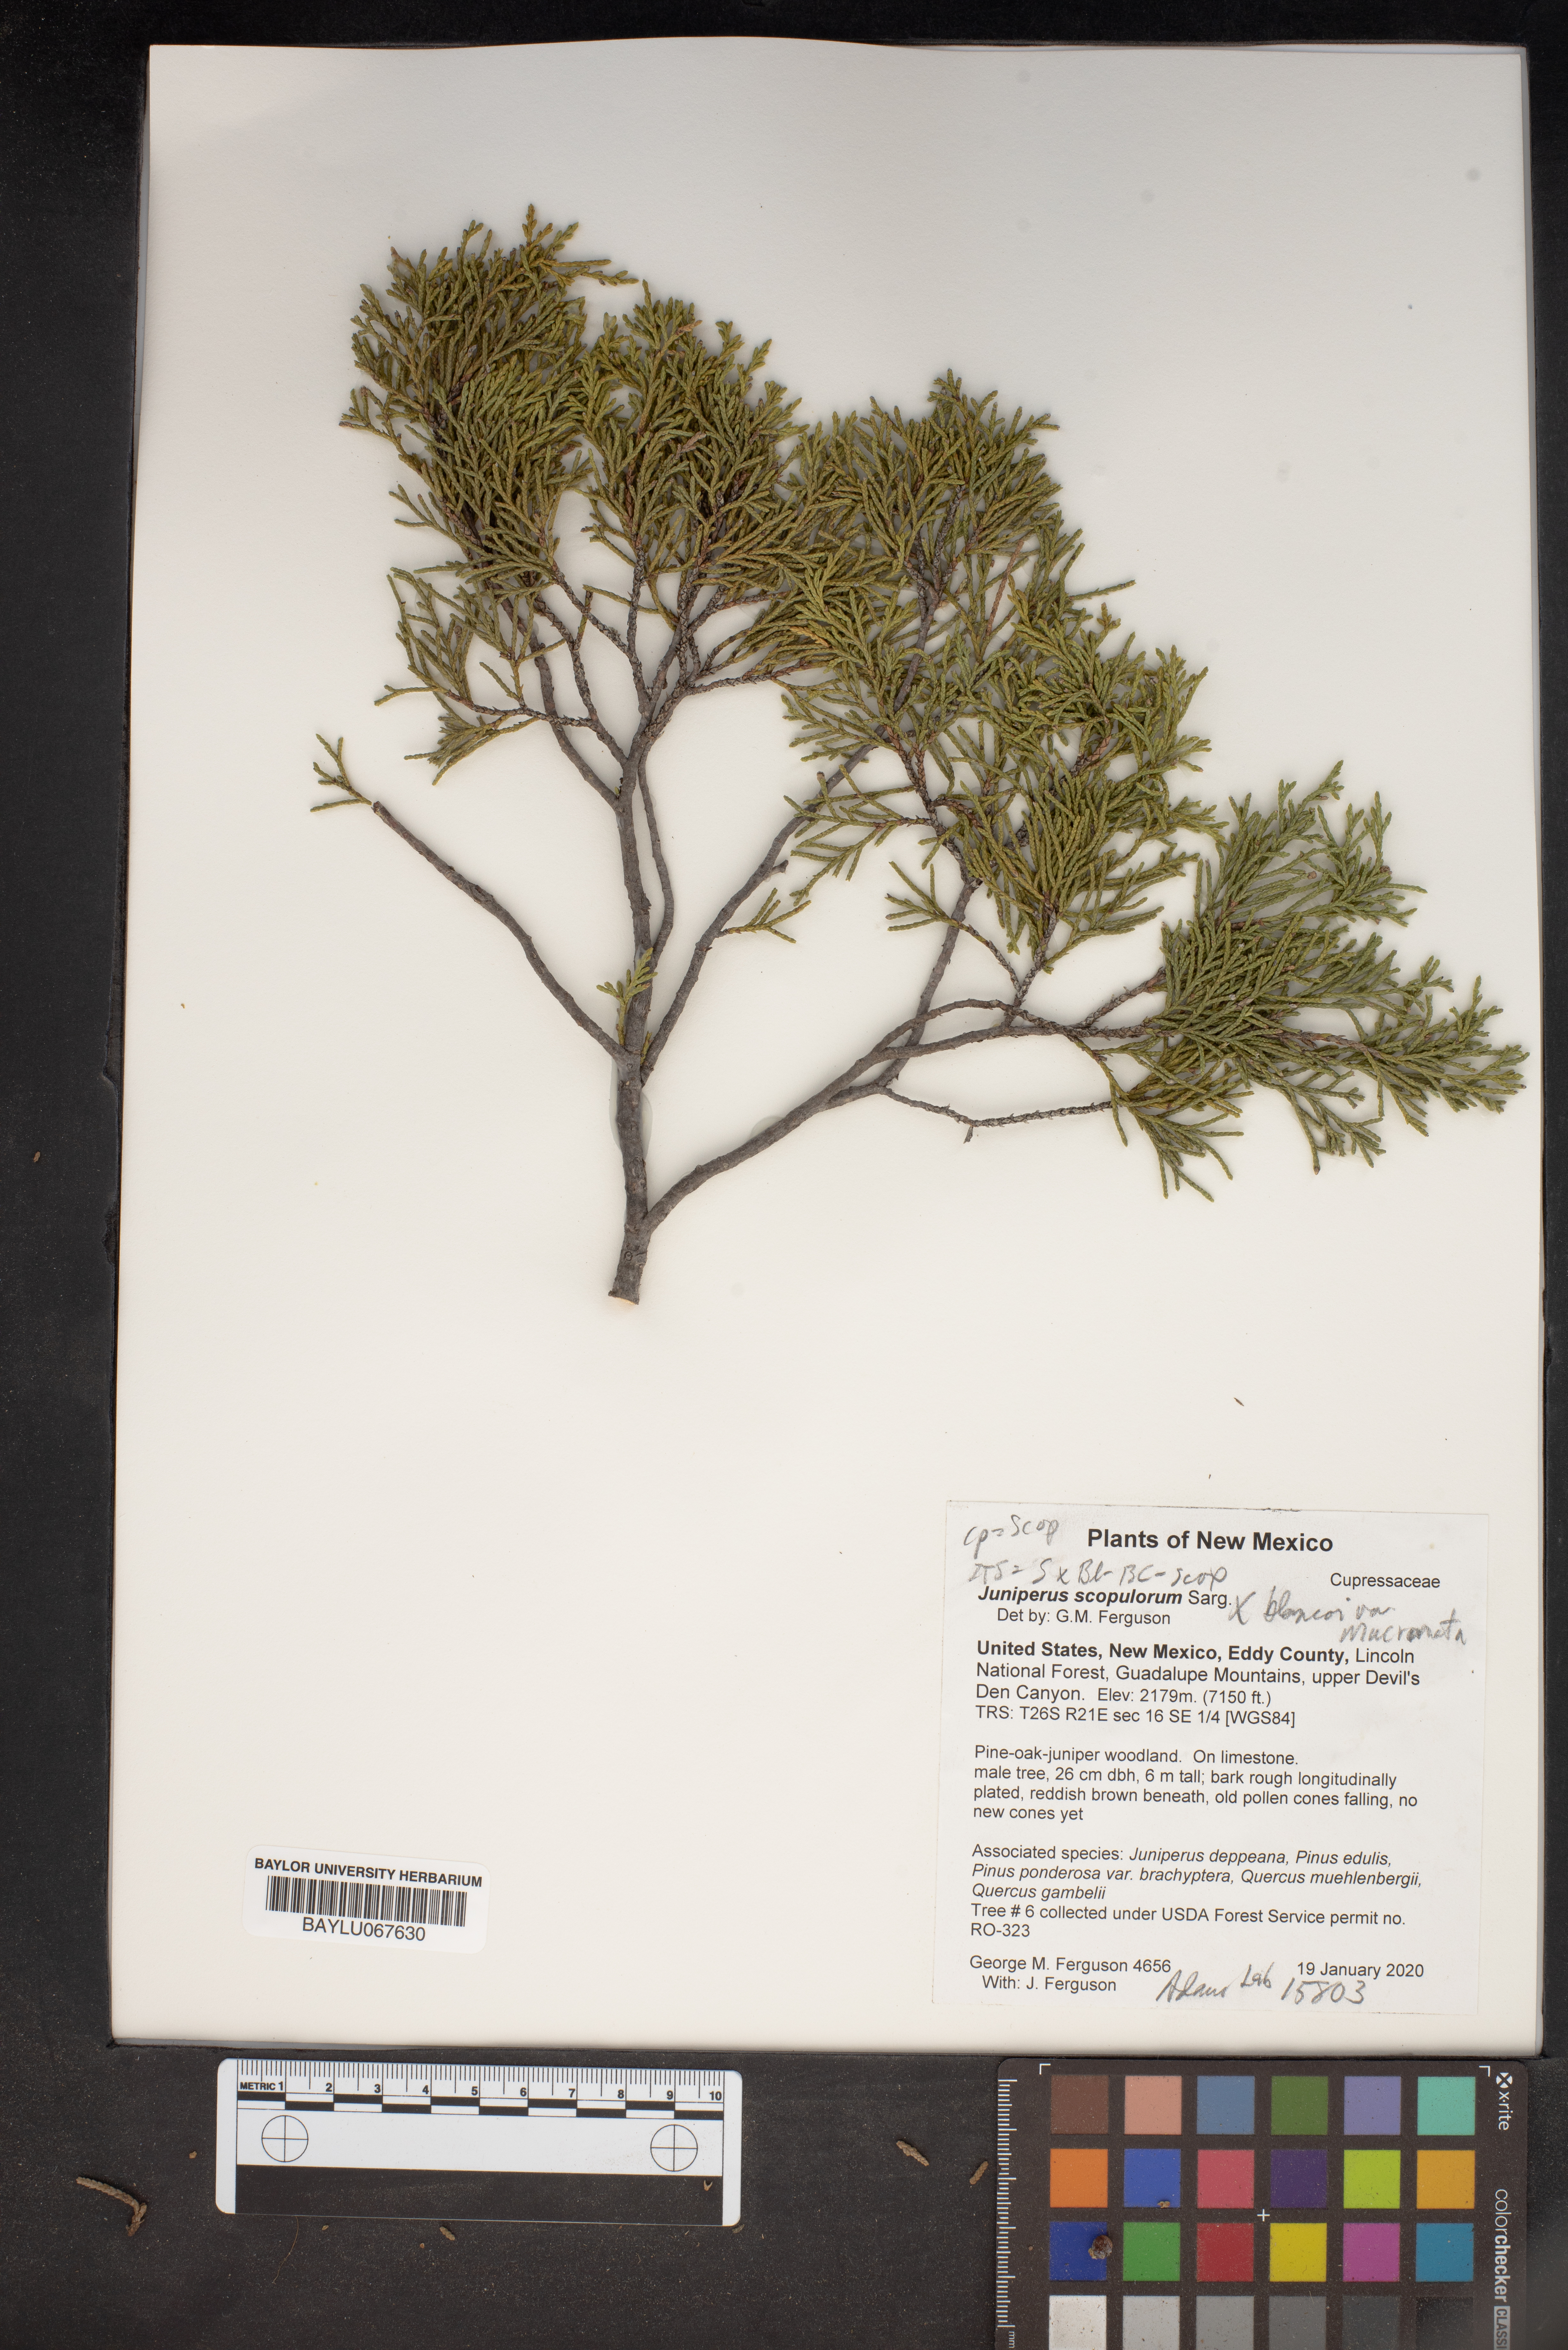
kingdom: Plantae
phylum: Tracheophyta
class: Pinopsida
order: Pinales
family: Cupressaceae
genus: Juniperus
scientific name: Juniperus scopulorum
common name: Rocky mountain juniper
